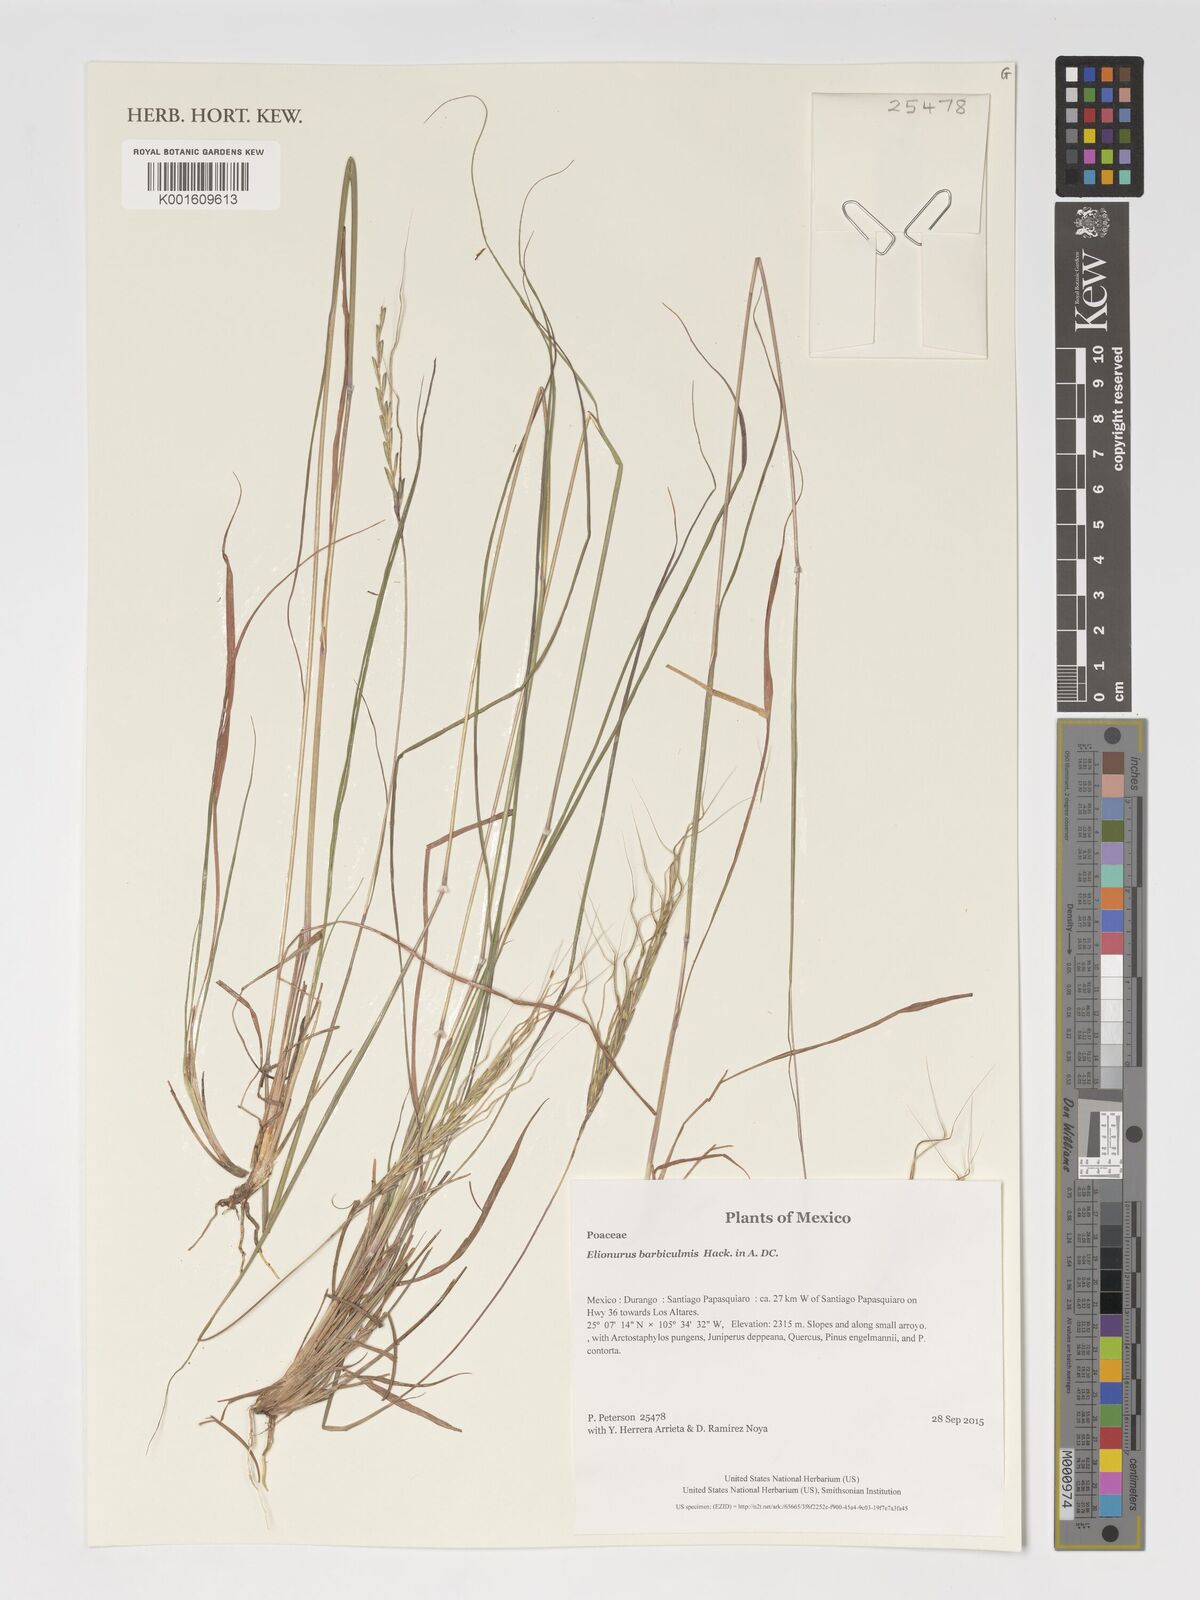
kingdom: Plantae
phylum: Tracheophyta
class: Liliopsida
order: Poales
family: Poaceae
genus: Elionurus
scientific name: Elionurus barbiculmis
